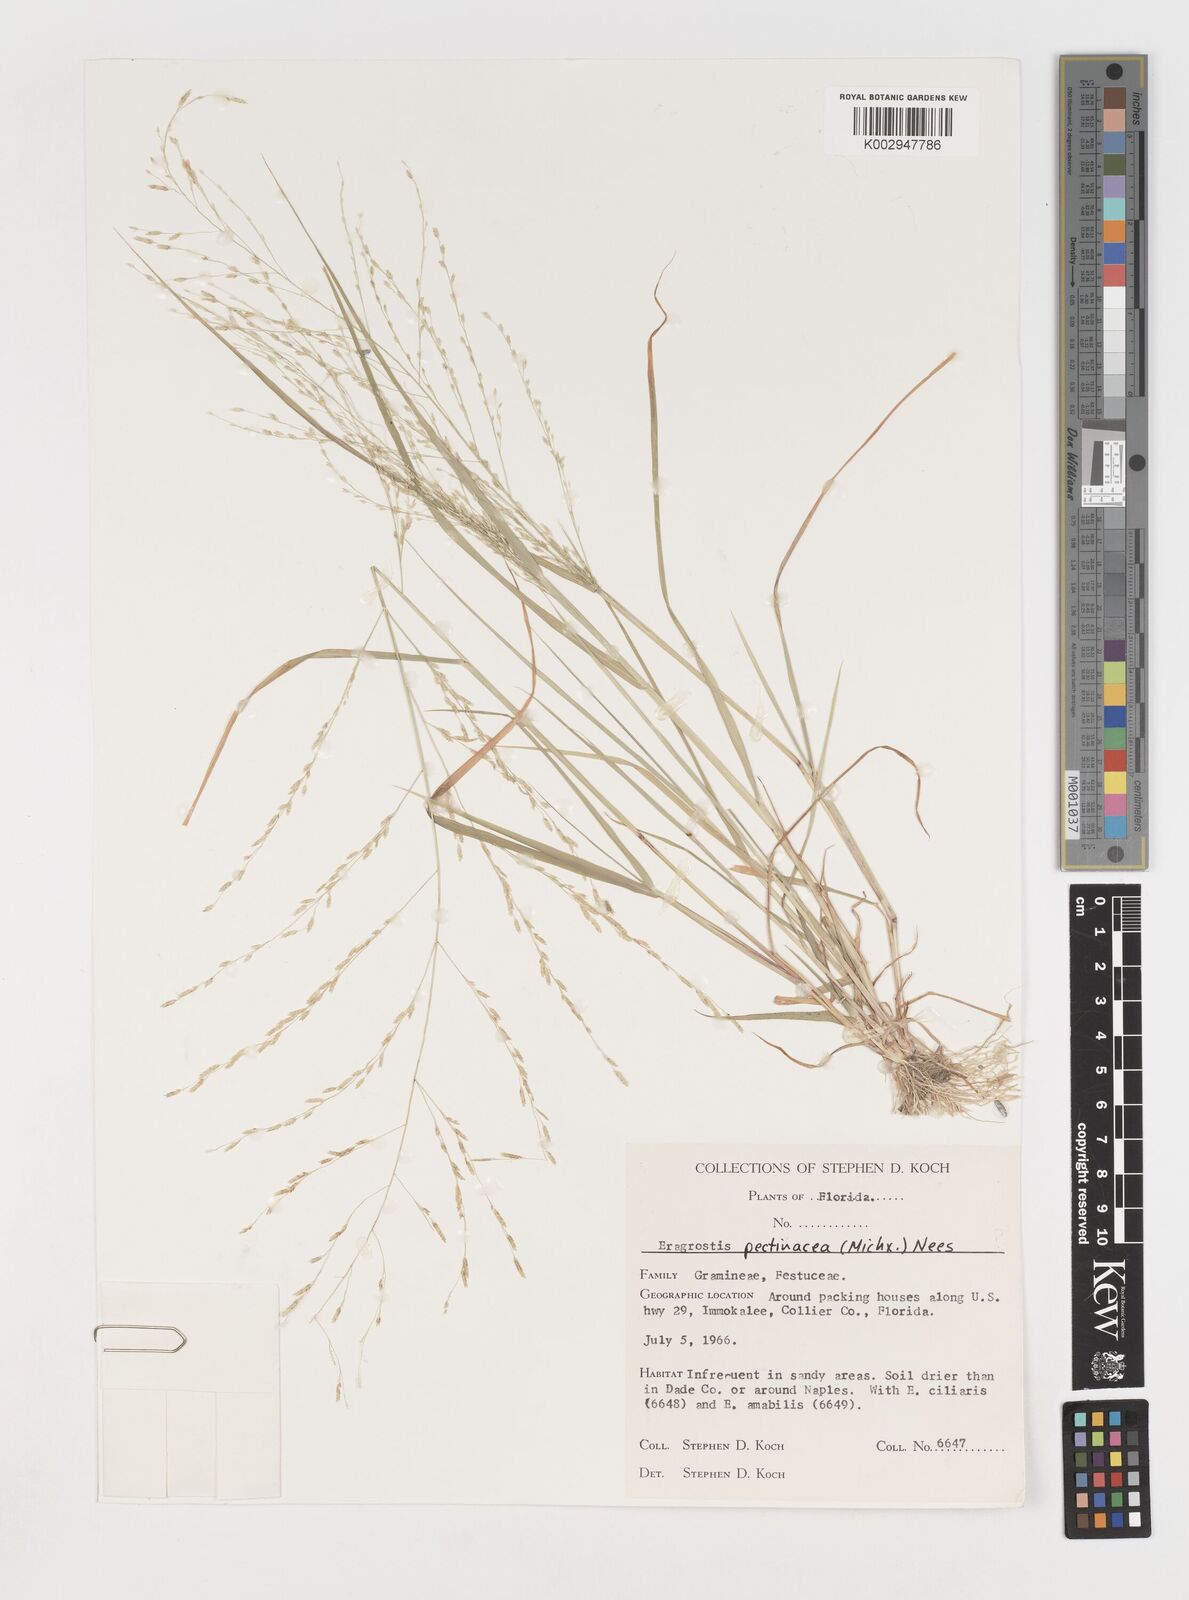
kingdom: Plantae
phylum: Tracheophyta
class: Liliopsida
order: Poales
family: Poaceae
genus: Eragrostis
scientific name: Eragrostis pectinacea
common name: Tufted lovegrass
